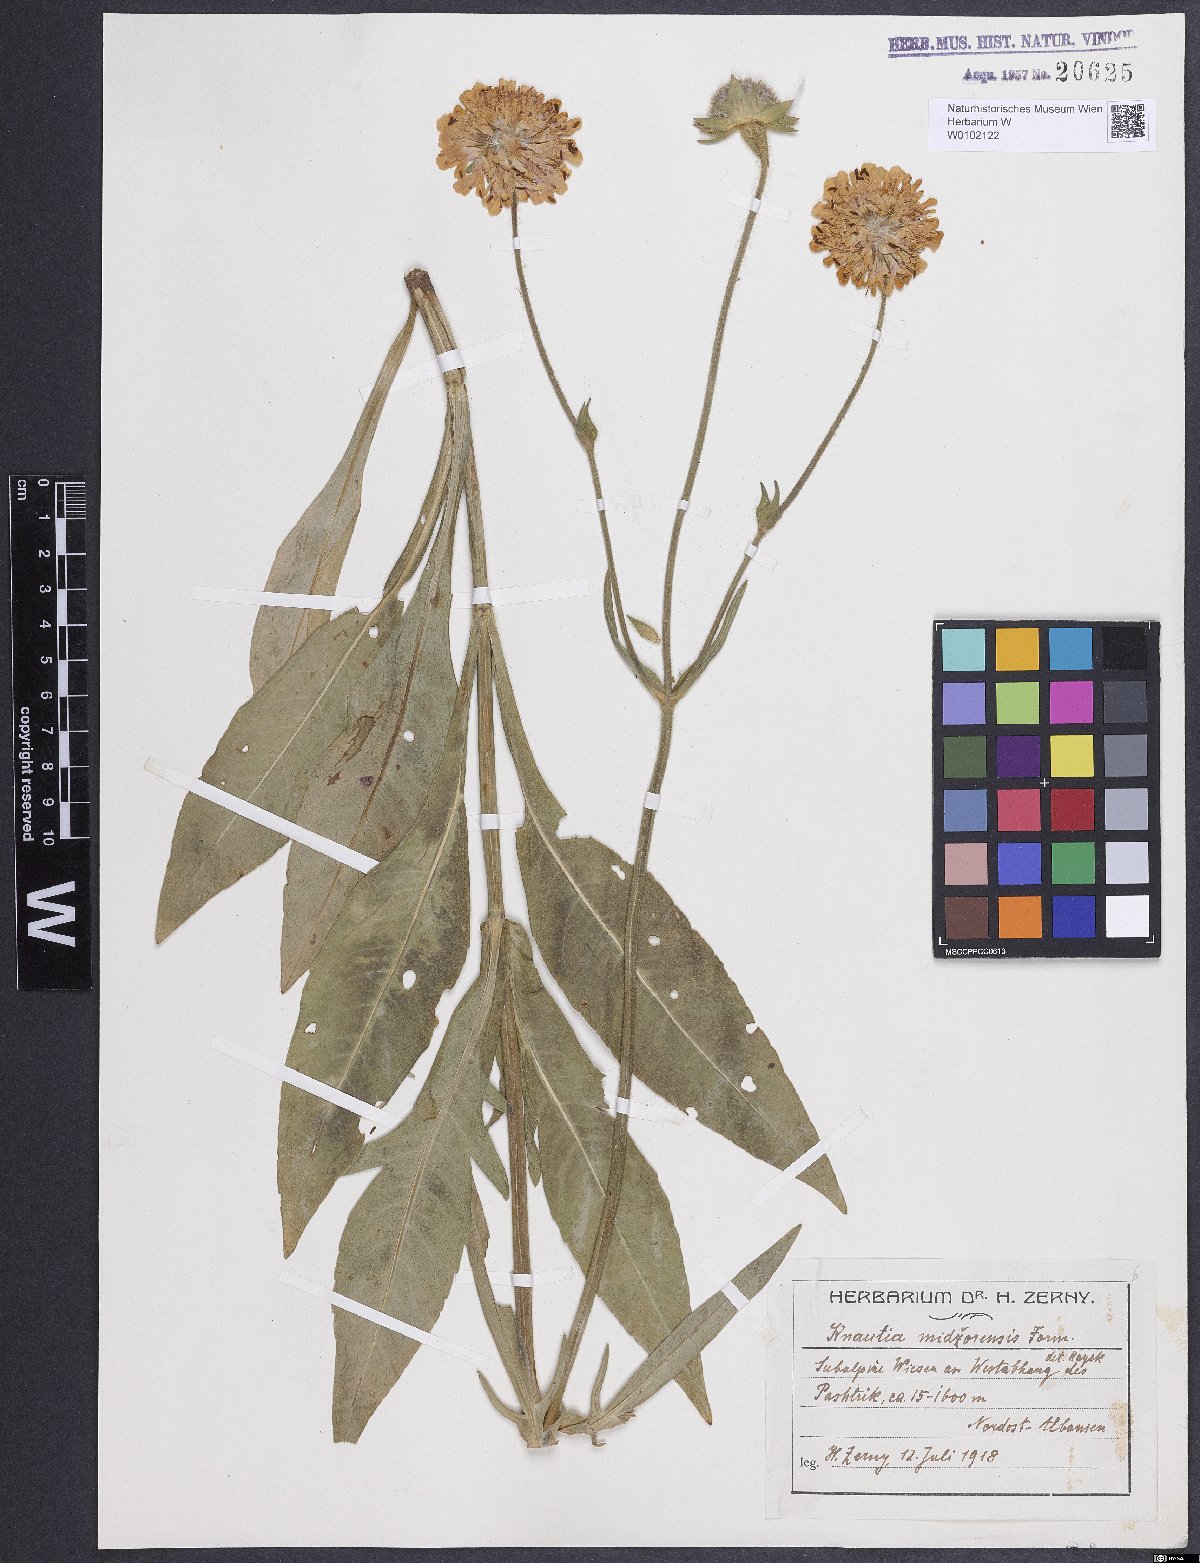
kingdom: Plantae
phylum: Tracheophyta
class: Magnoliopsida
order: Dipsacales
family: Caprifoliaceae
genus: Knautia
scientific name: Knautia midzorensis
